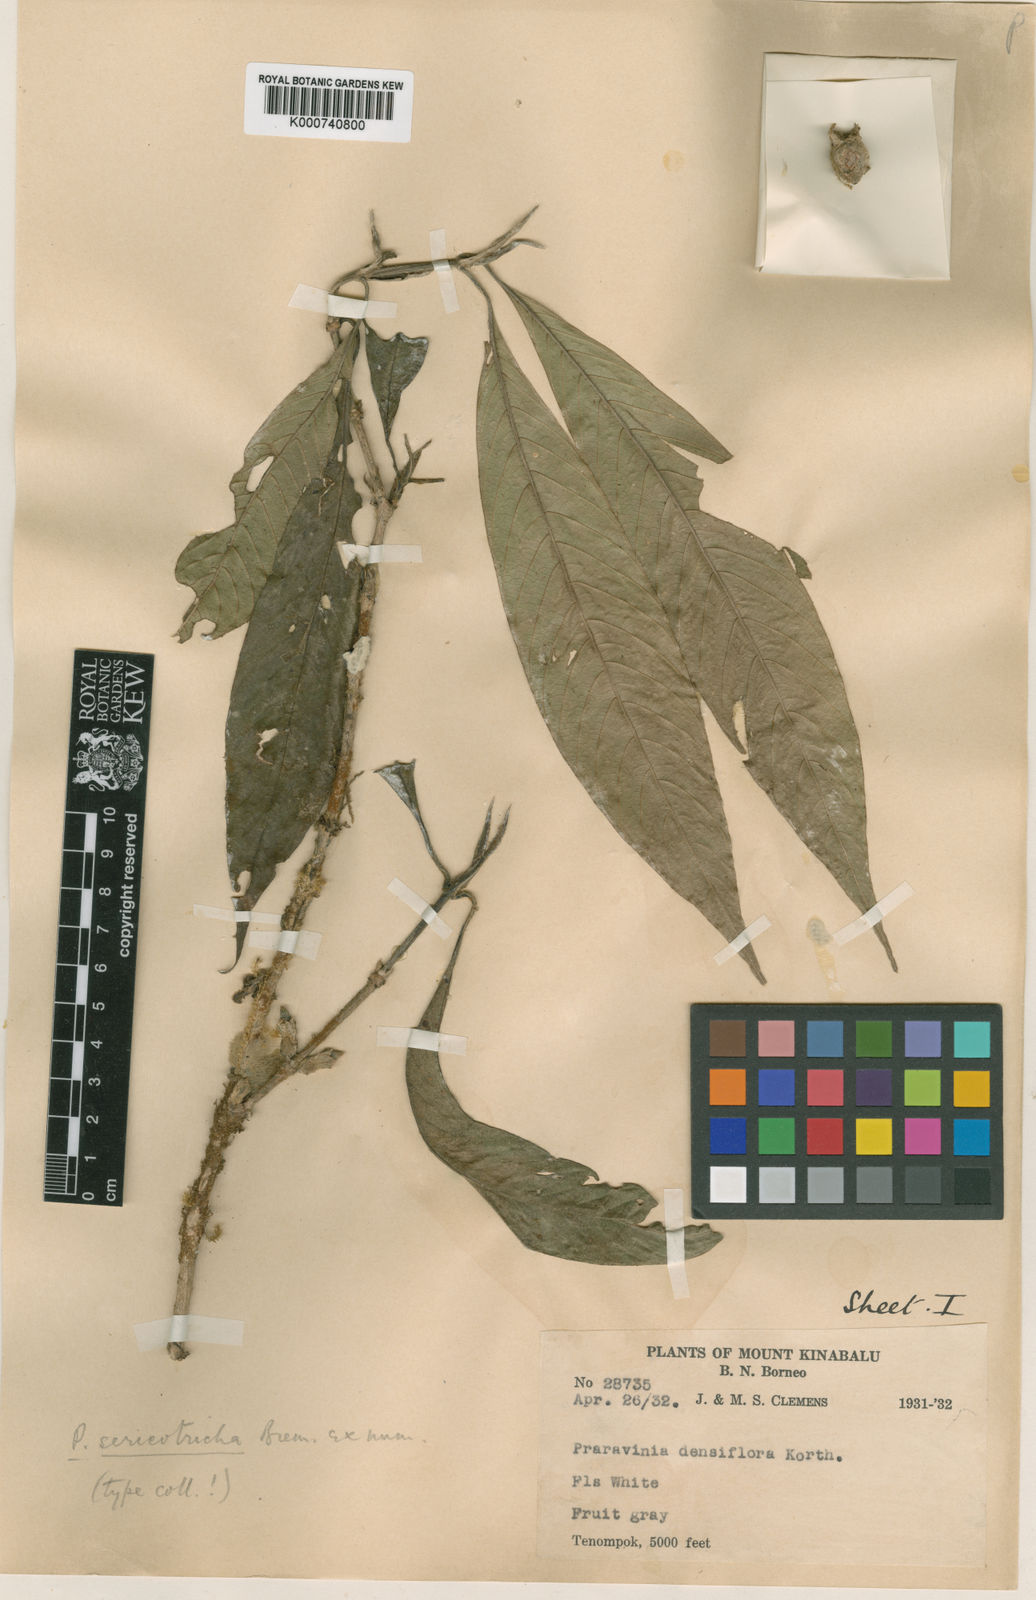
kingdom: Plantae
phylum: Tracheophyta
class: Magnoliopsida
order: Gentianales
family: Rubiaceae
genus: Praravinia
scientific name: Praravinia sericotricha
